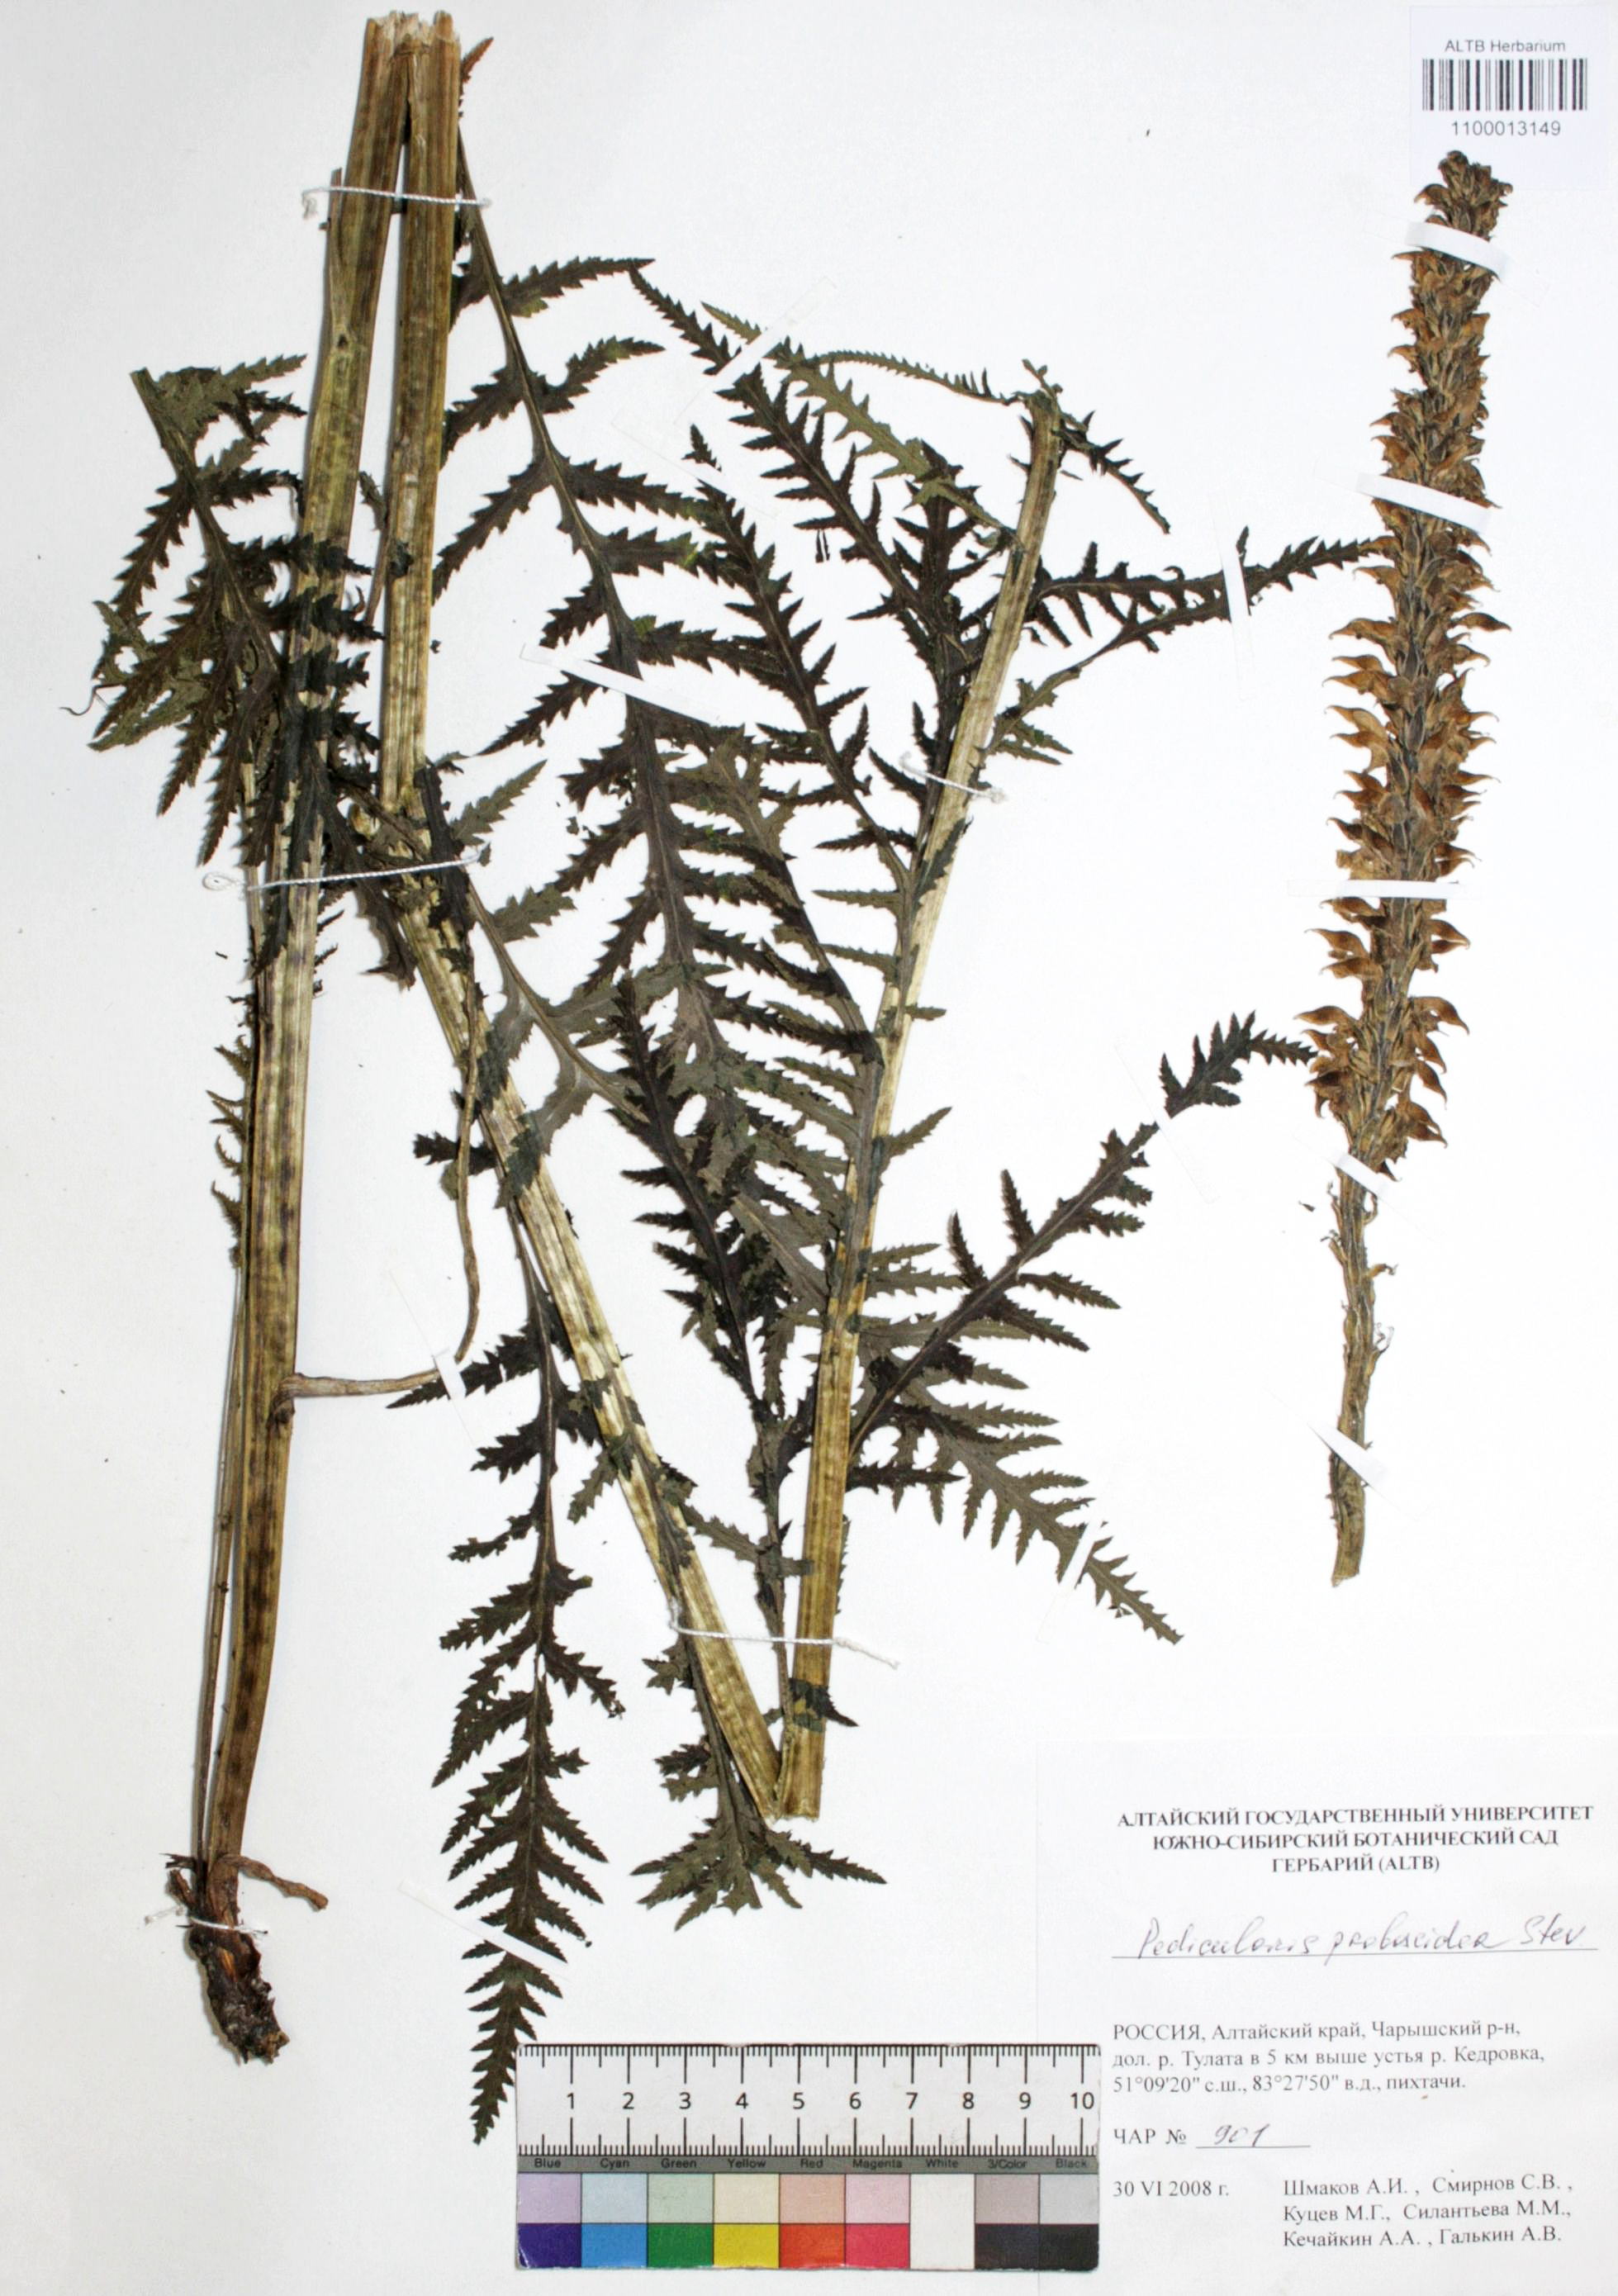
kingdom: Plantae
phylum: Tracheophyta
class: Magnoliopsida
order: Lamiales
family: Orobanchaceae
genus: Pedicularis
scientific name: Pedicularis proboscidea
